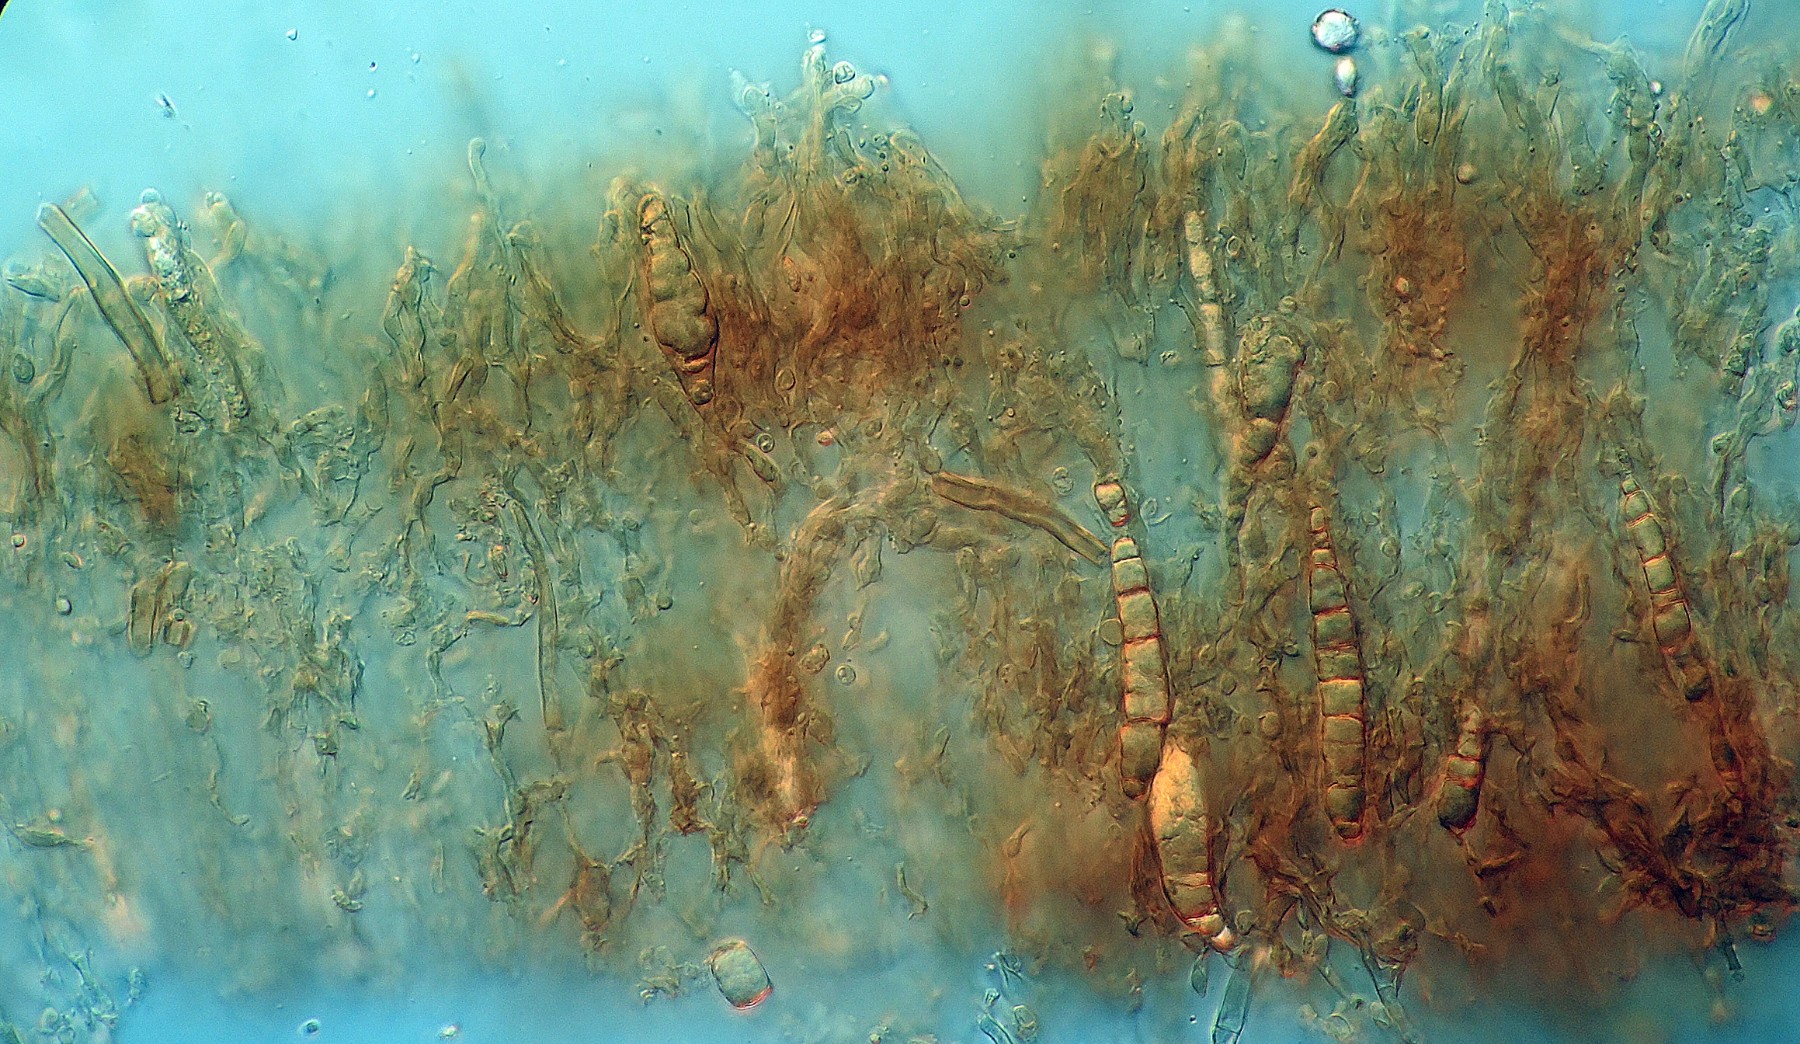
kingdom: Fungi
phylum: Basidiomycota
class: Agaricomycetes
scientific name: Agaricomycetes
